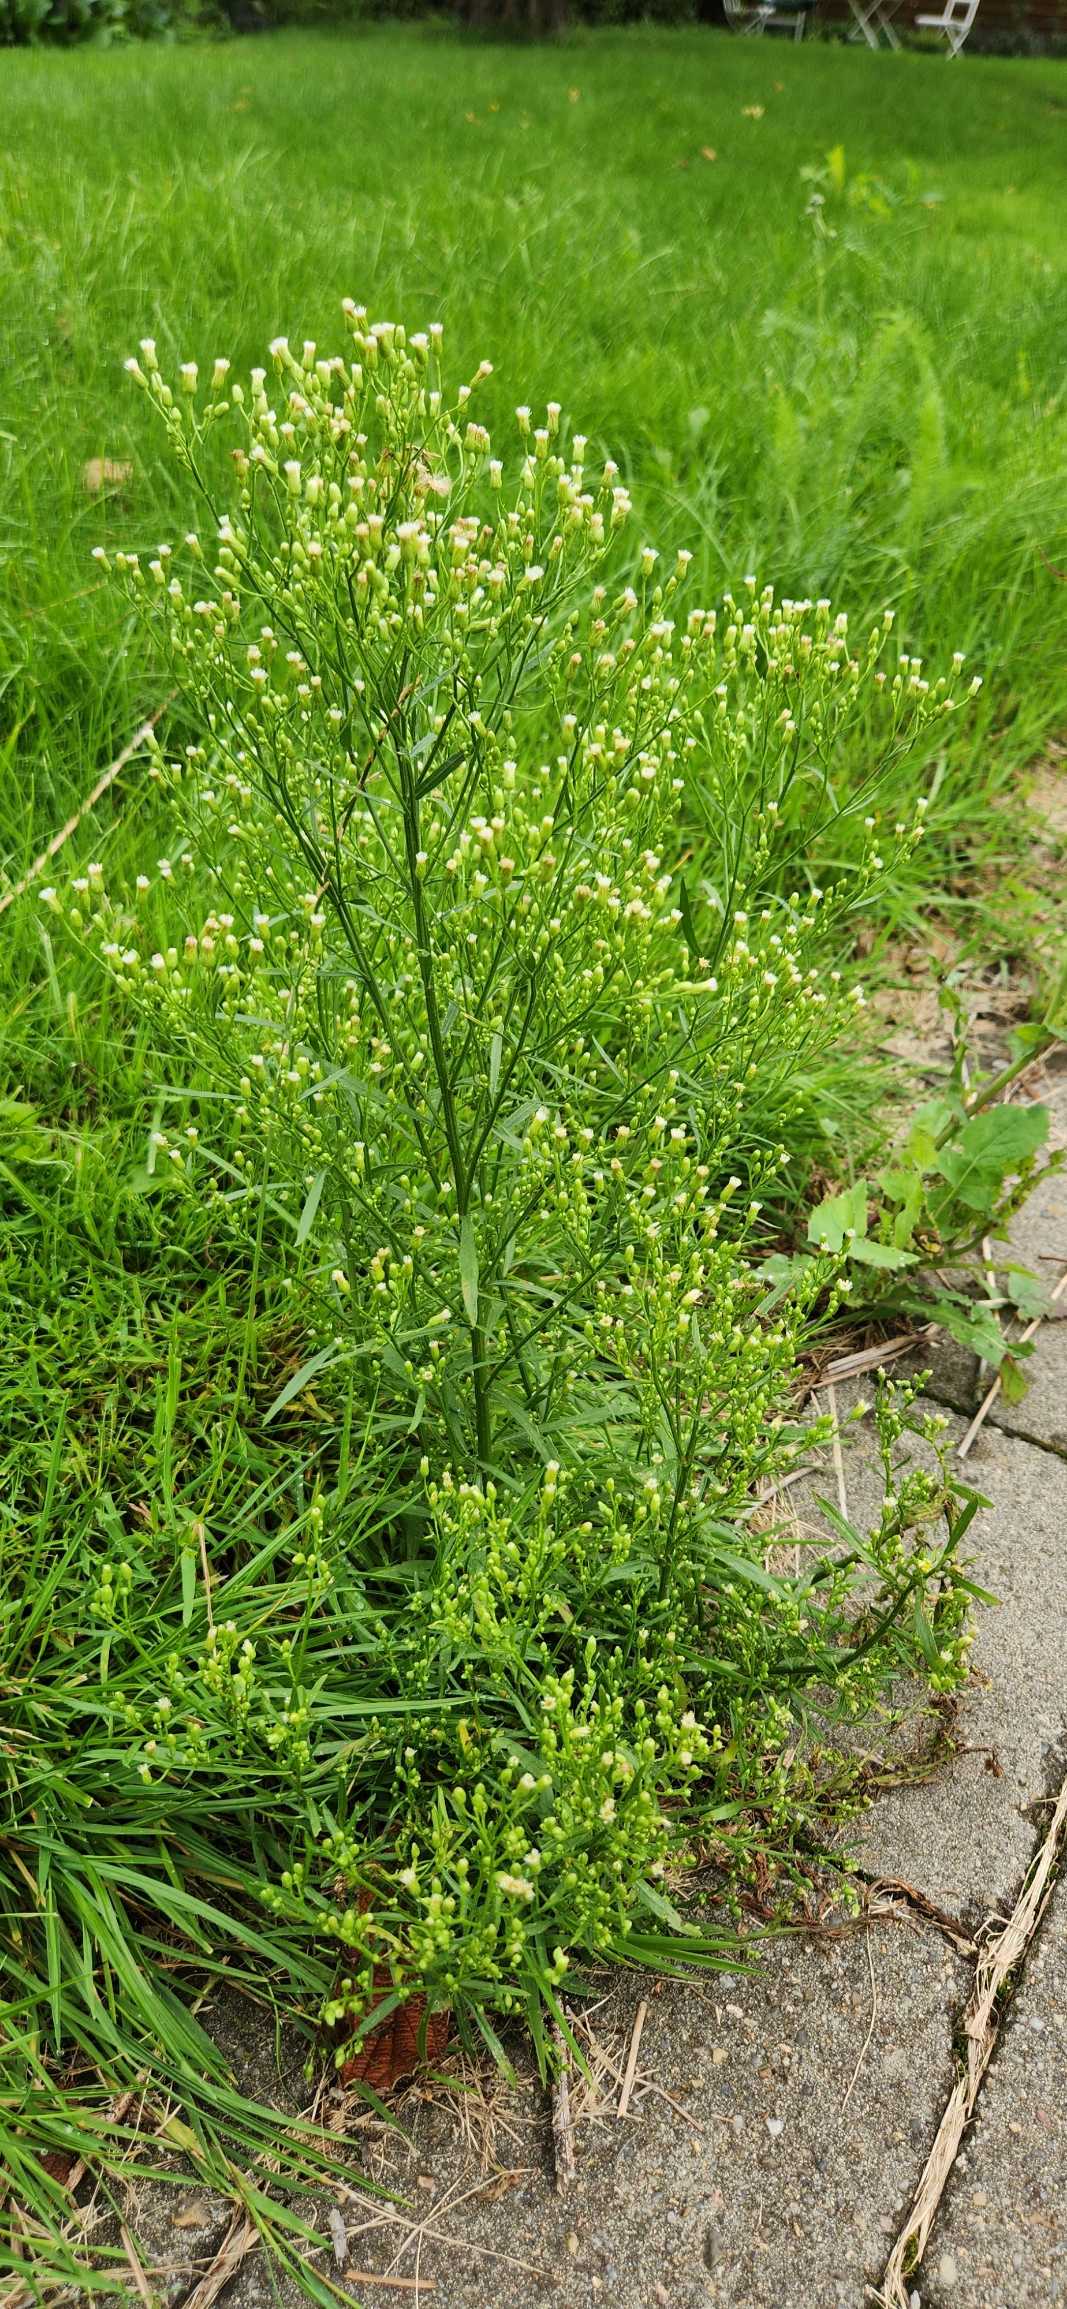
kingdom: Plantae
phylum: Tracheophyta
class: Magnoliopsida
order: Asterales
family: Asteraceae
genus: Erigeron
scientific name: Erigeron canadensis
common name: Kanadisk bakkestjerne
